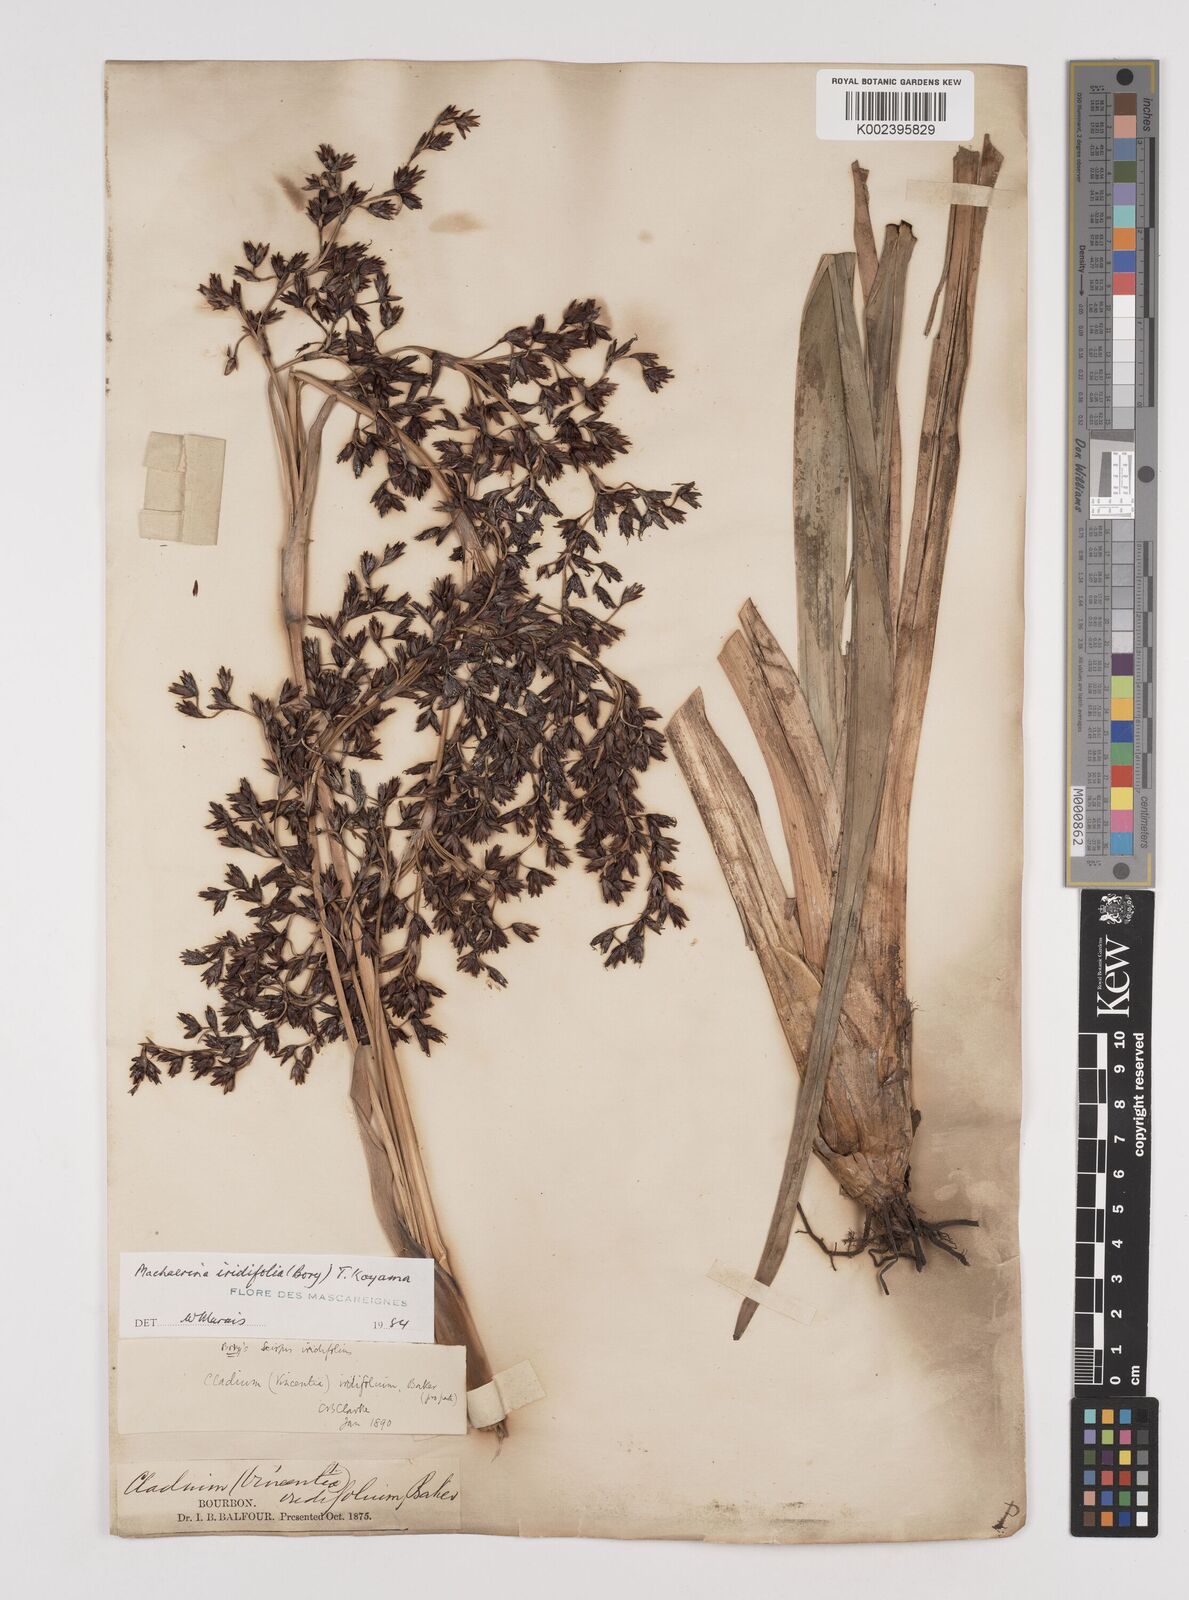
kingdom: Plantae
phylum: Tracheophyta
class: Liliopsida
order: Poales
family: Cyperaceae
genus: Machaerina
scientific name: Machaerina iridifolia
